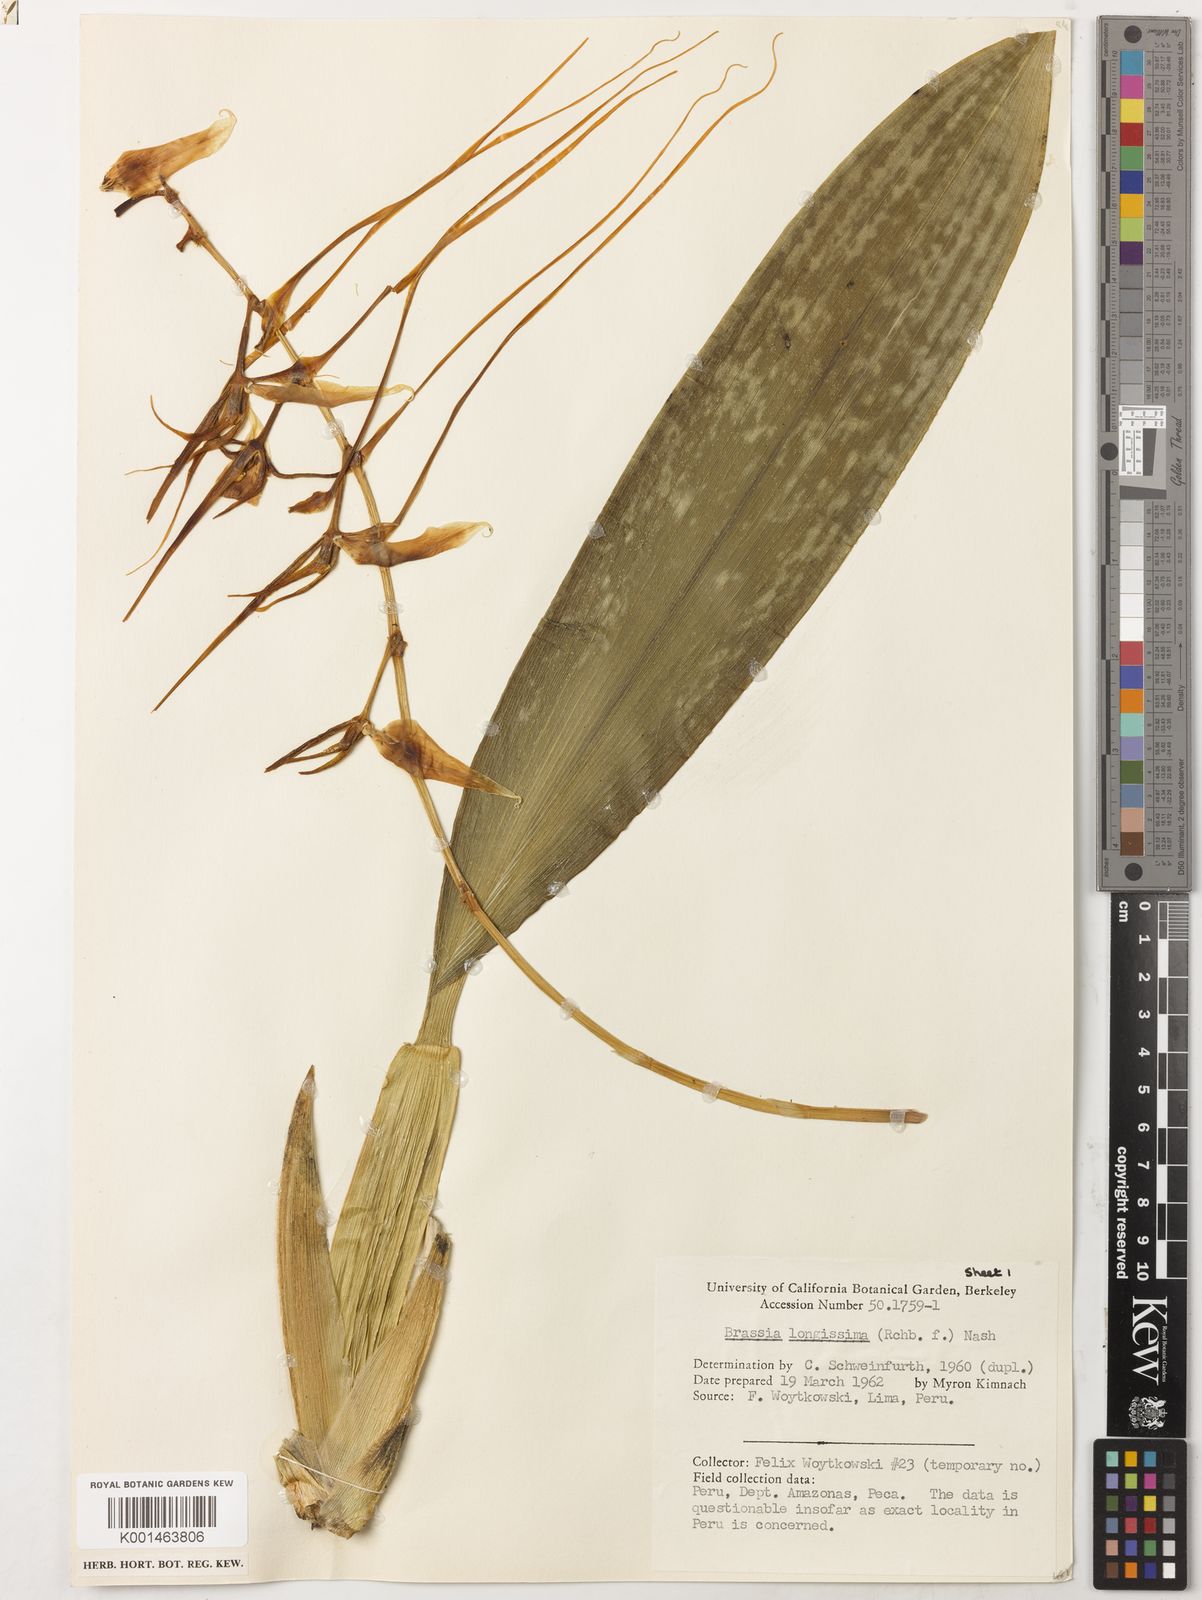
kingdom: Plantae
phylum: Tracheophyta
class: Liliopsida
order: Asparagales
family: Orchidaceae
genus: Brassia
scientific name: Brassia arcuigera
